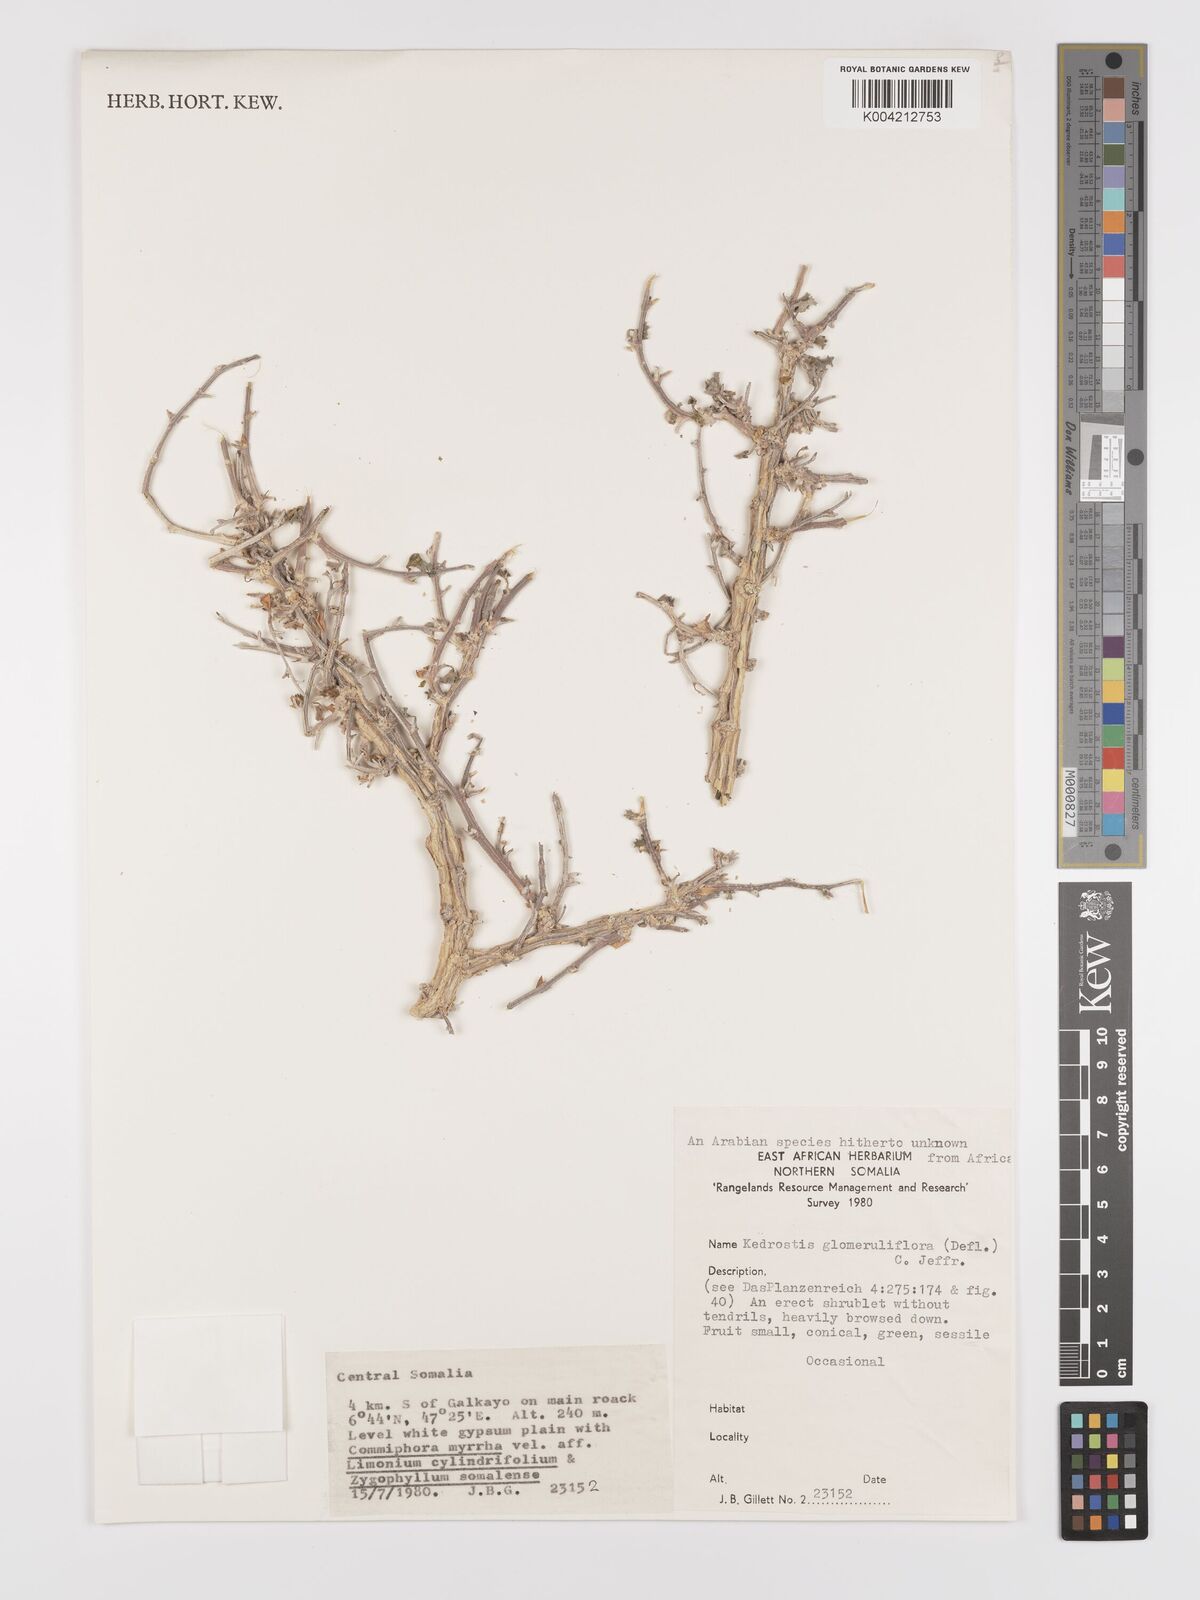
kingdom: Plantae
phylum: Tracheophyta
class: Magnoliopsida
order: Cucurbitales
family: Cucurbitaceae
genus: Corallocarpus
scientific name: Corallocarpus glomeruliflorus
